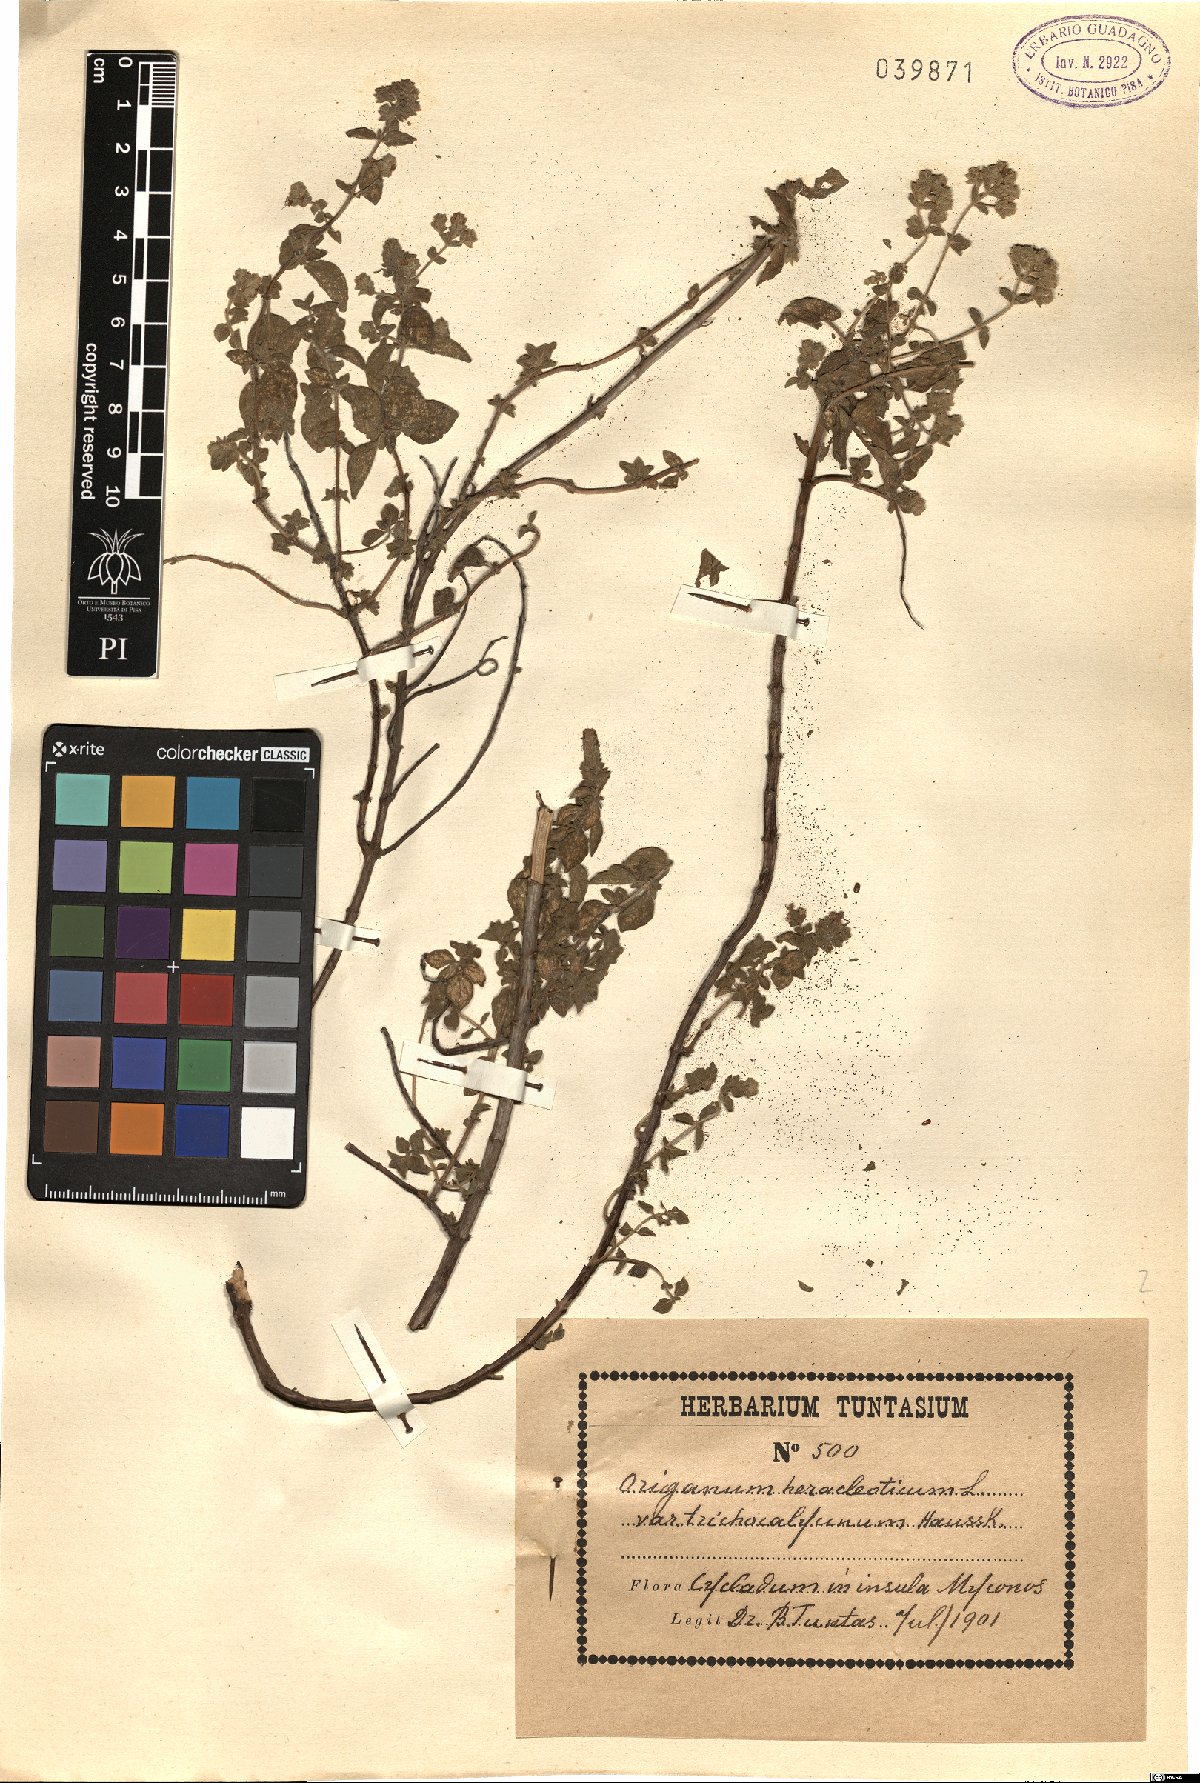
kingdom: Plantae
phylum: Tracheophyta
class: Magnoliopsida
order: Lamiales
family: Lamiaceae
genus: Origanum
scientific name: Origanum
